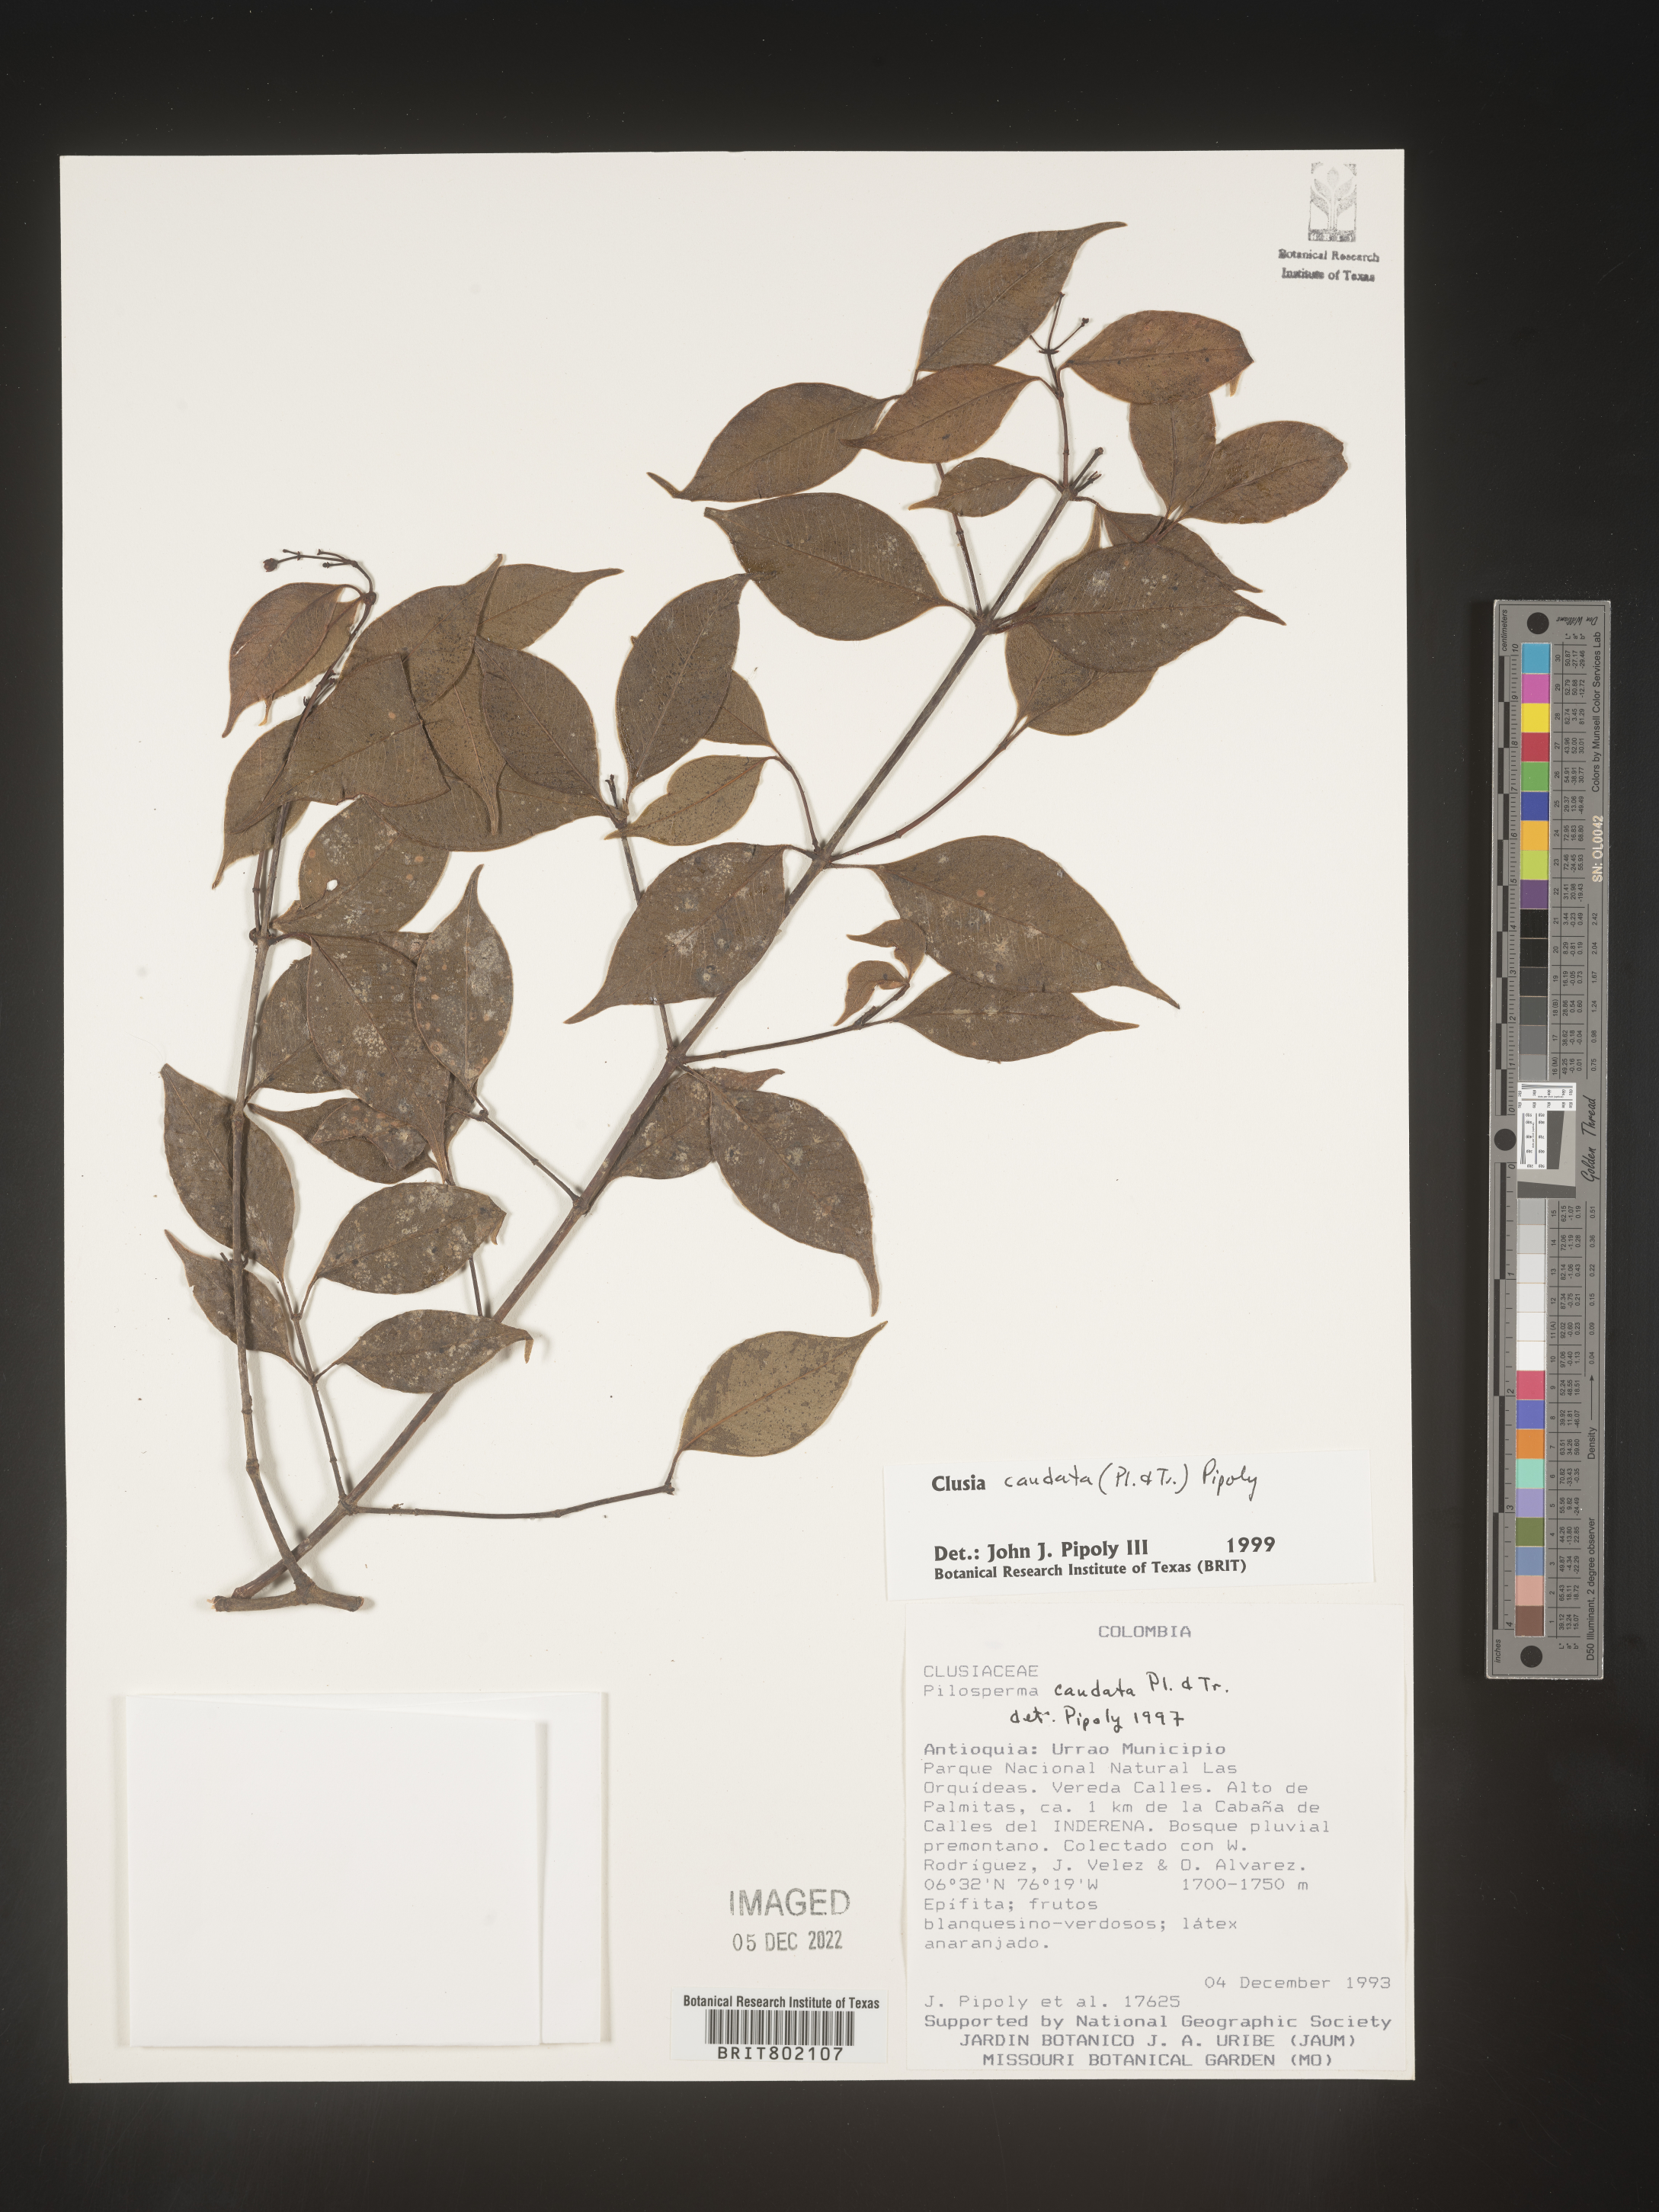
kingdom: Plantae
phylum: Tracheophyta
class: Magnoliopsida
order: Malpighiales
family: Clusiaceae
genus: Clusia
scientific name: Clusia
